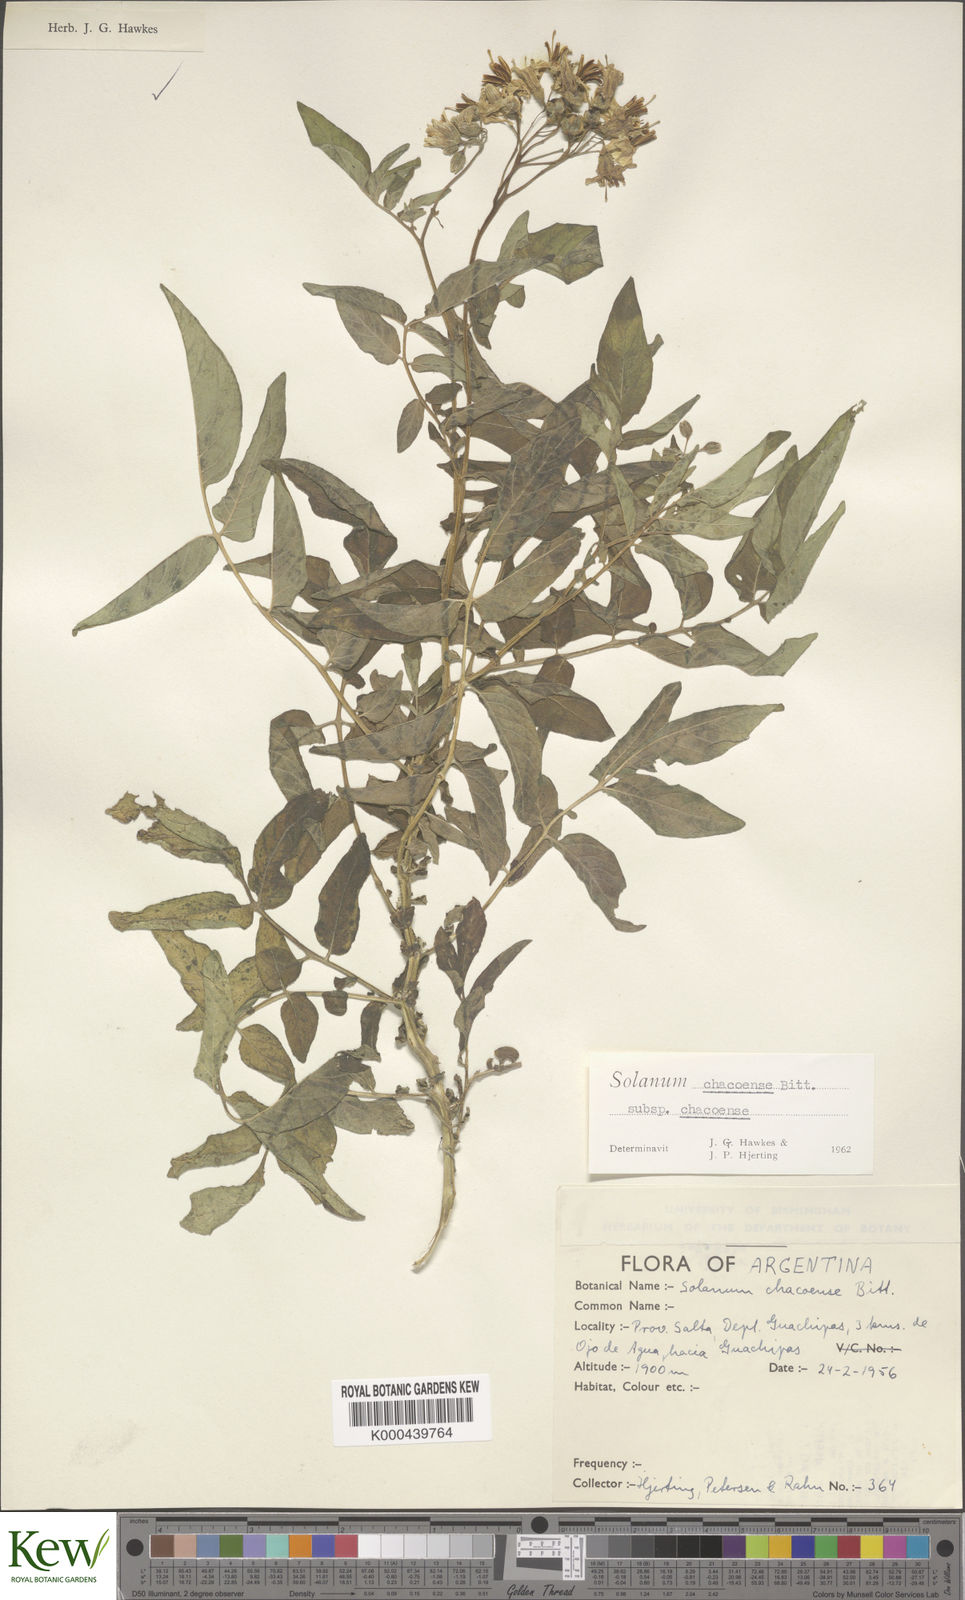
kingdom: Plantae
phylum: Tracheophyta
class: Magnoliopsida
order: Solanales
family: Solanaceae
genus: Solanum
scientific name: Solanum chacoense
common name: Chaco potato
